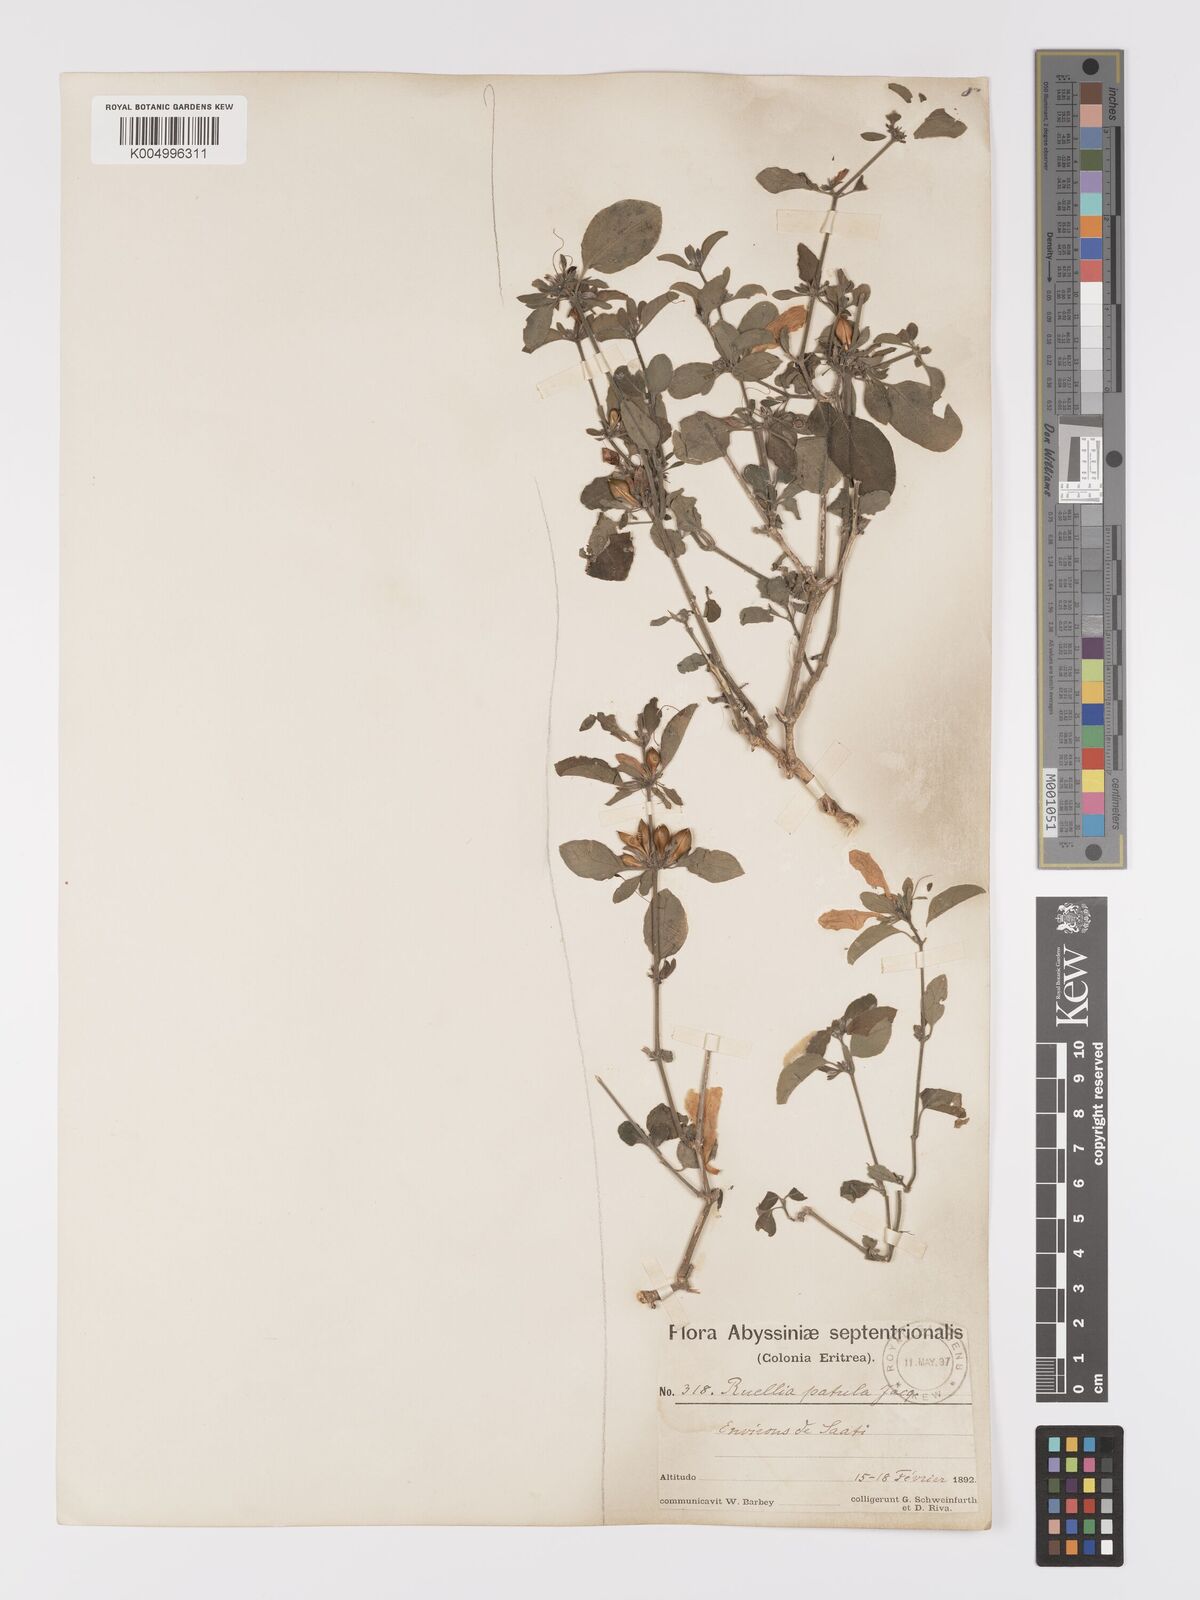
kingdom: Plantae
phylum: Tracheophyta
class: Magnoliopsida
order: Lamiales
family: Acanthaceae
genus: Ruellia
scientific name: Ruellia patula
